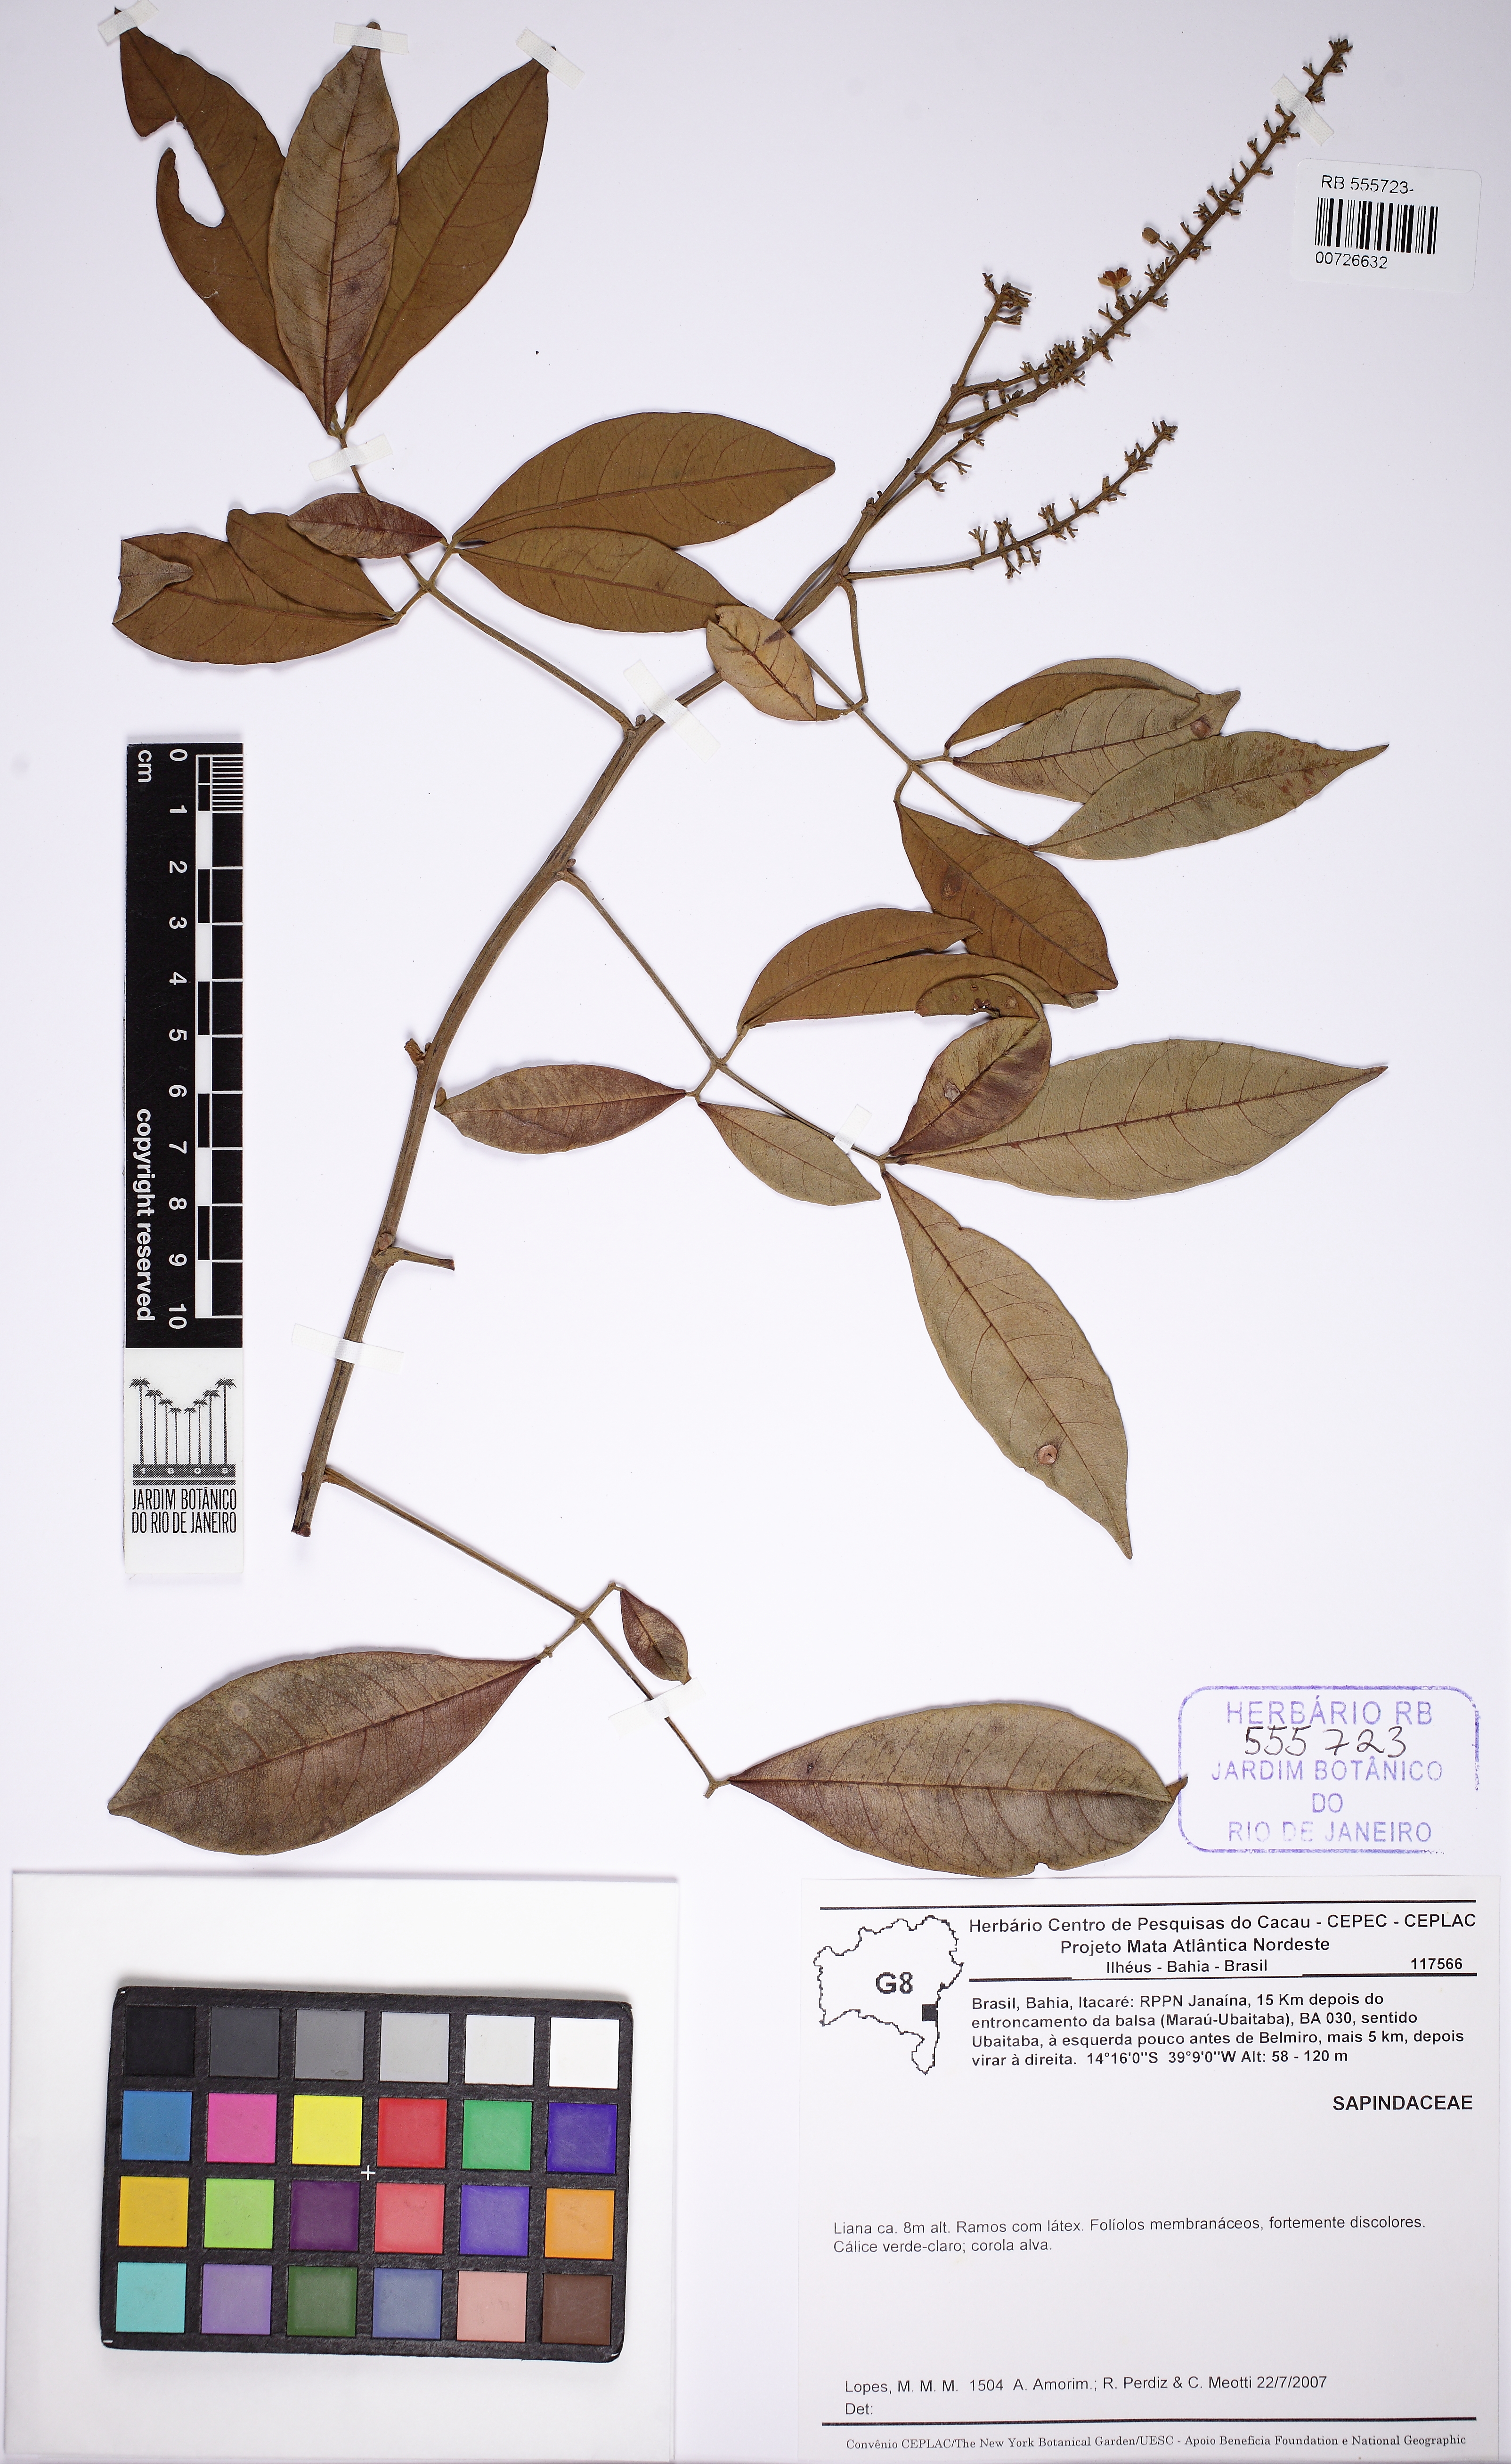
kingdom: Plantae
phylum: Tracheophyta
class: Magnoliopsida
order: Sapindales
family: Sapindaceae
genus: Paullinia
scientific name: Paullinia carpopodea
